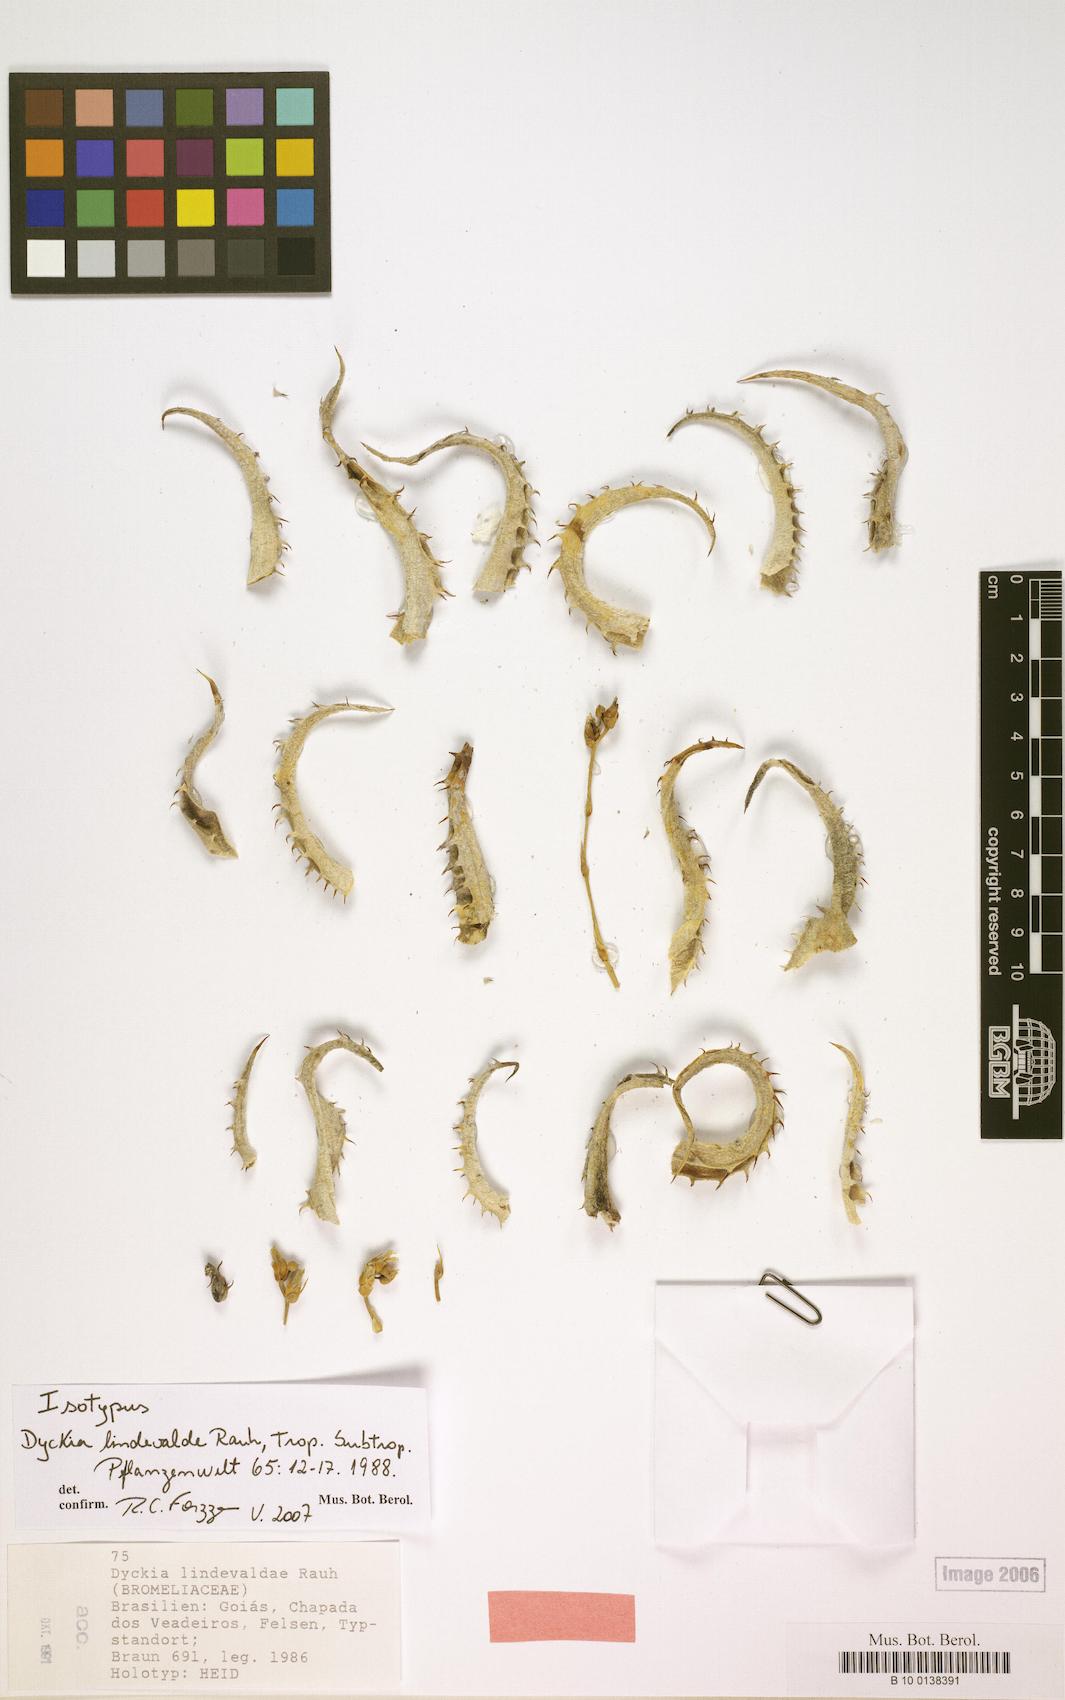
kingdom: Plantae
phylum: Tracheophyta
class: Liliopsida
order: Poales
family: Bromeliaceae
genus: Dyckia
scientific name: Dyckia lindevaldae
